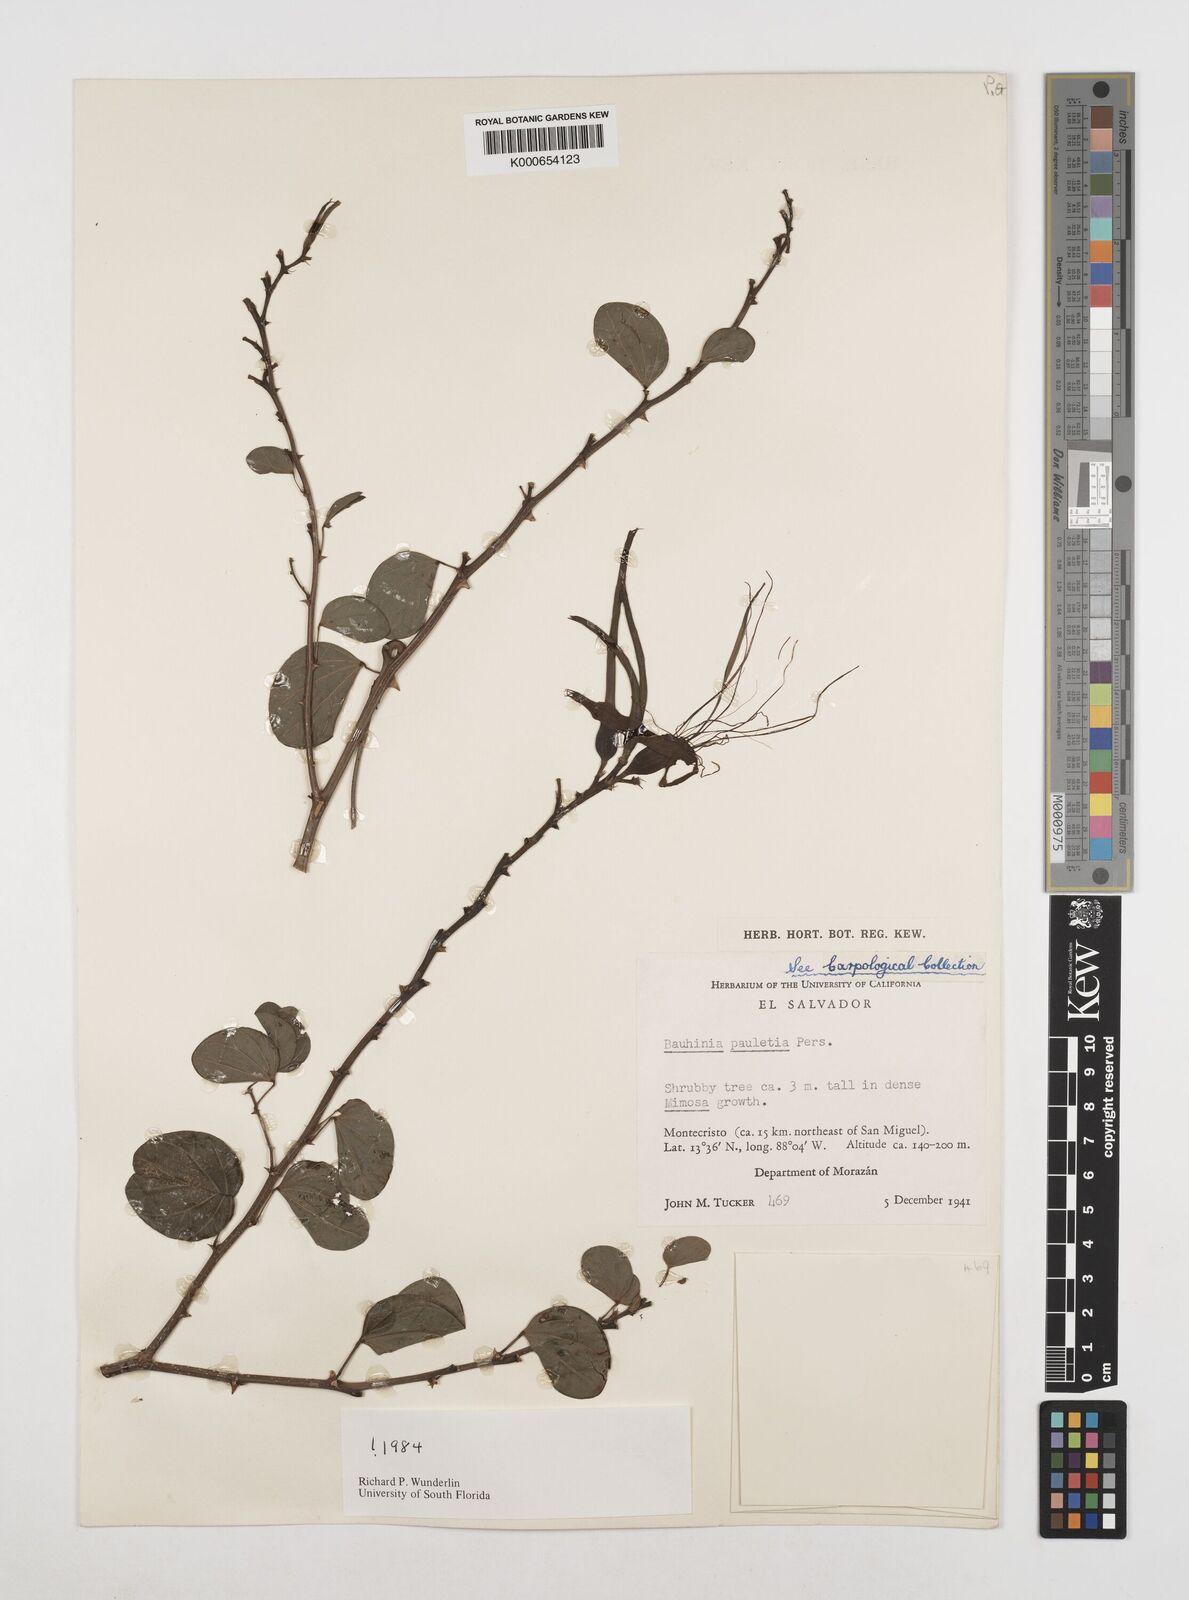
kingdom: Plantae
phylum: Tracheophyta
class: Magnoliopsida
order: Fabales
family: Fabaceae
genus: Bauhinia
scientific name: Bauhinia pauletia
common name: Railway-fence bauhinia
